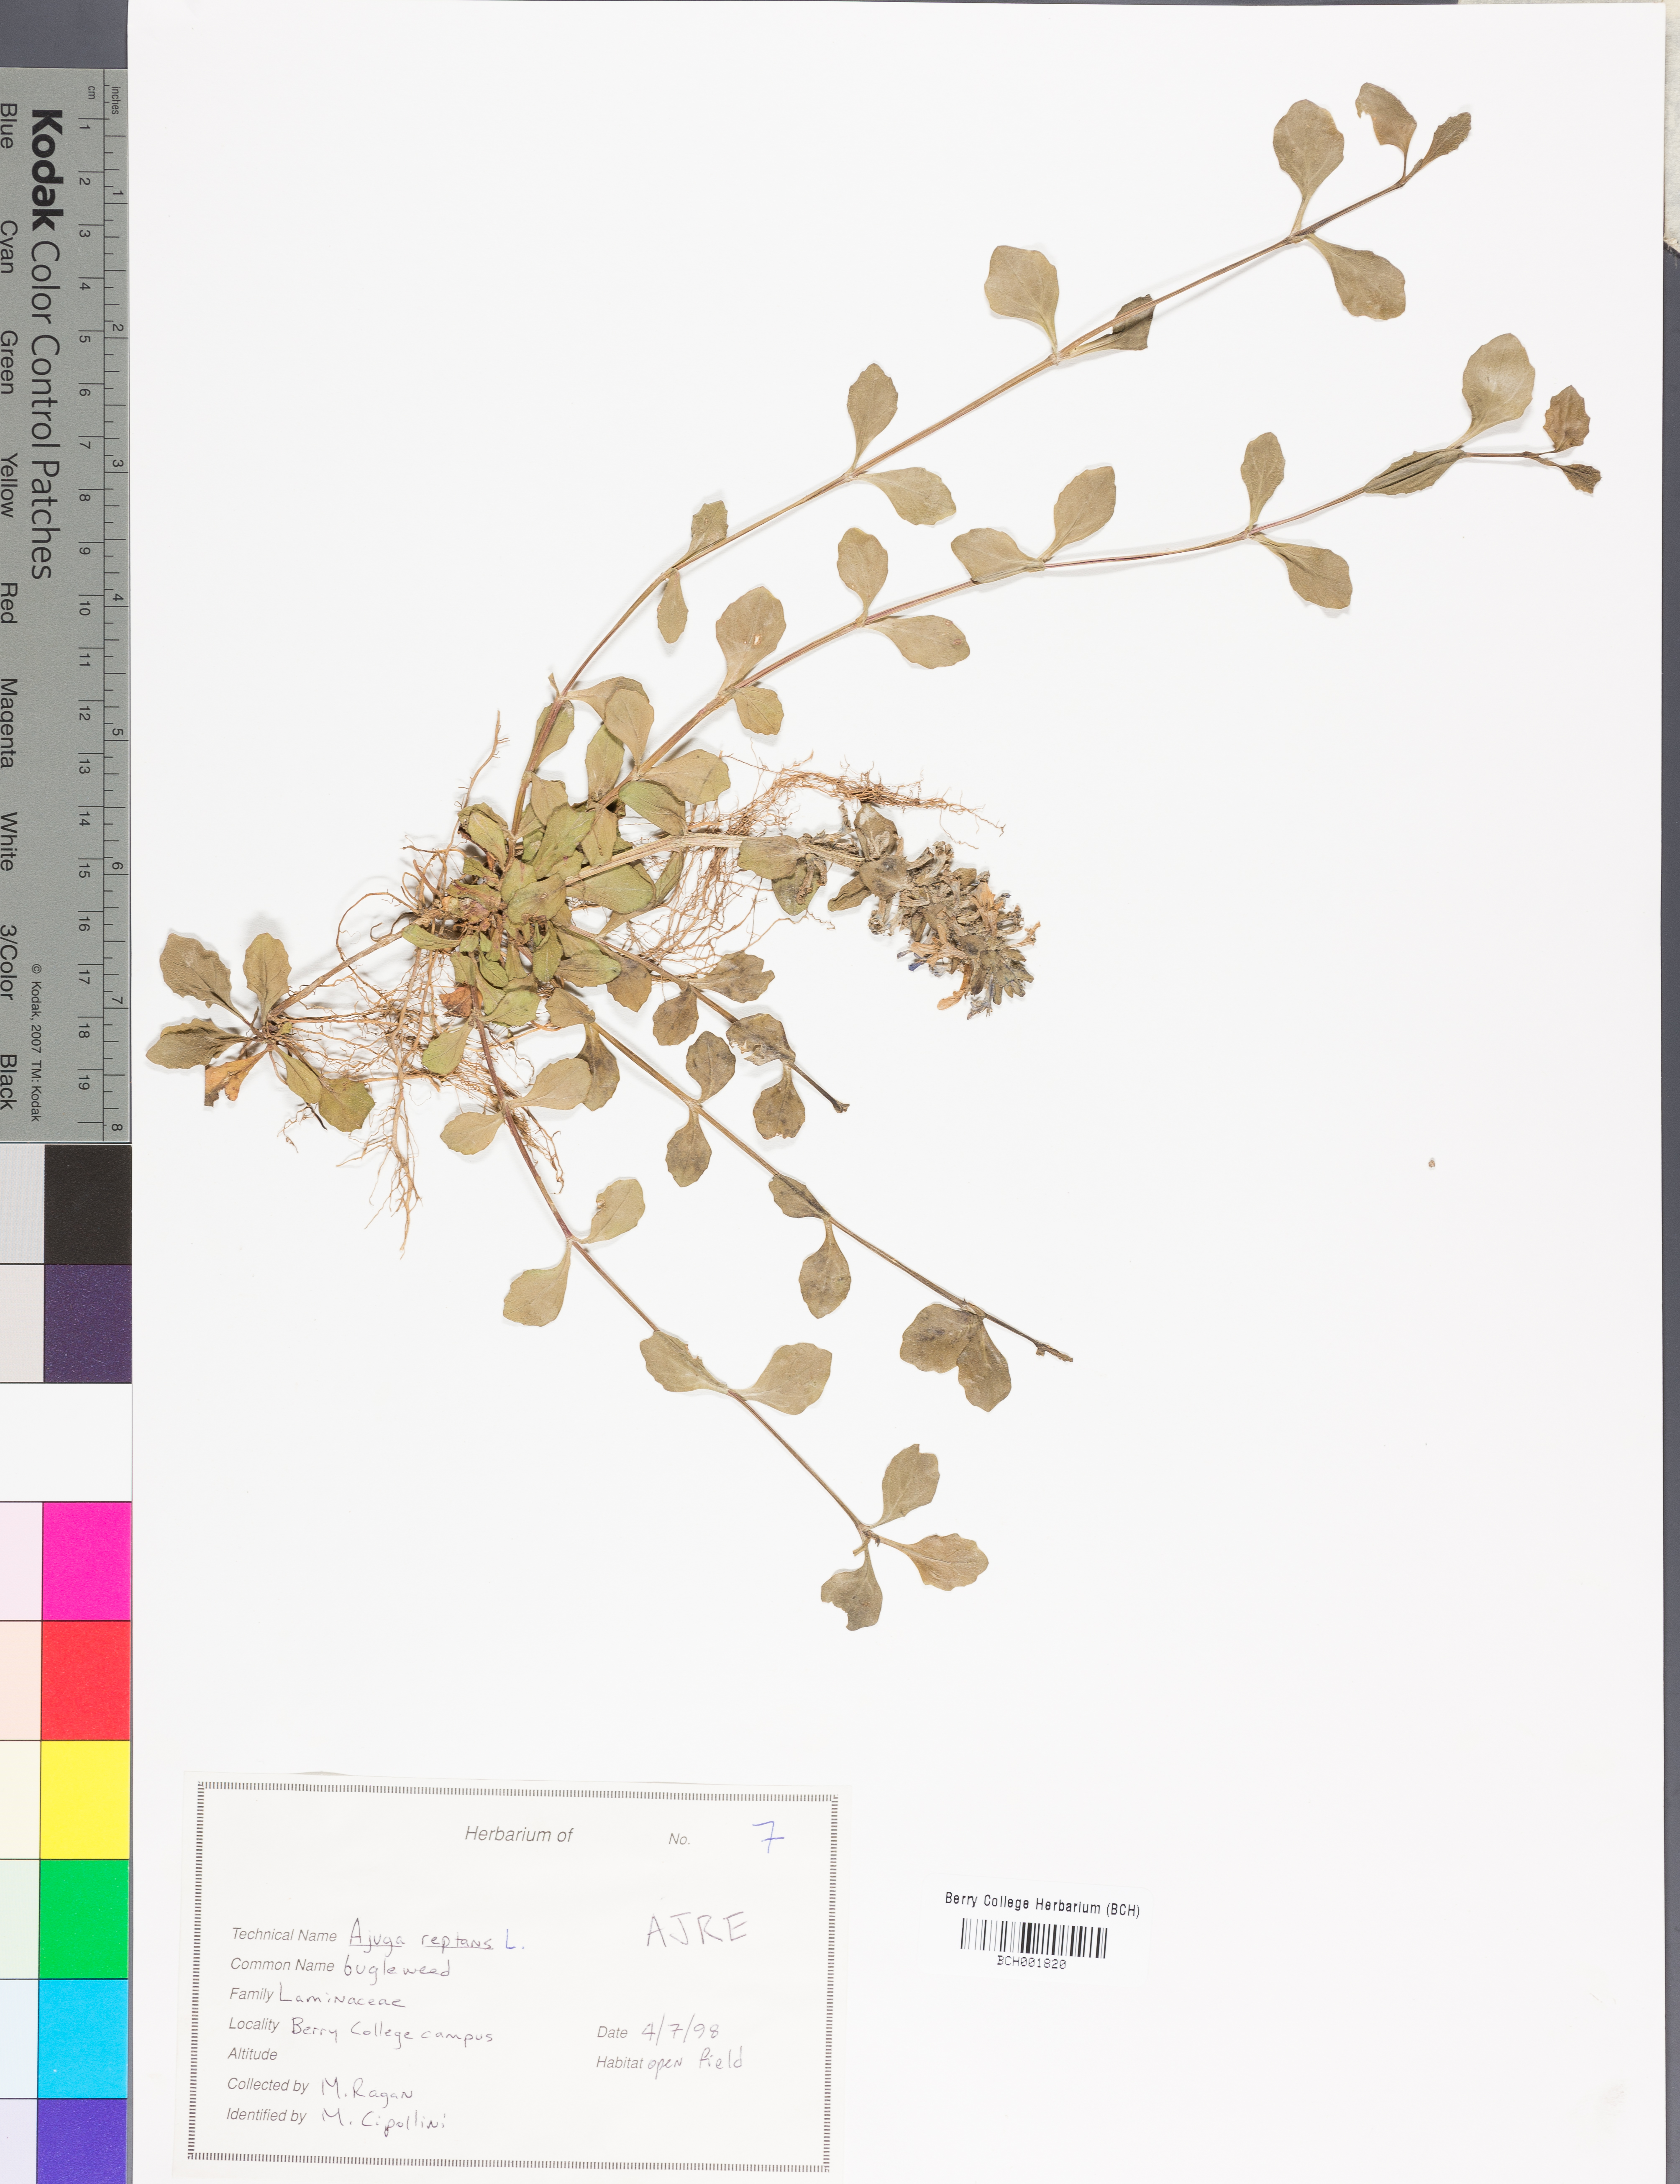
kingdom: Plantae
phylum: Tracheophyta
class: Magnoliopsida
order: Lamiales
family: Lamiaceae
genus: Ajuga
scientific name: Ajuga reptans
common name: Bugle
